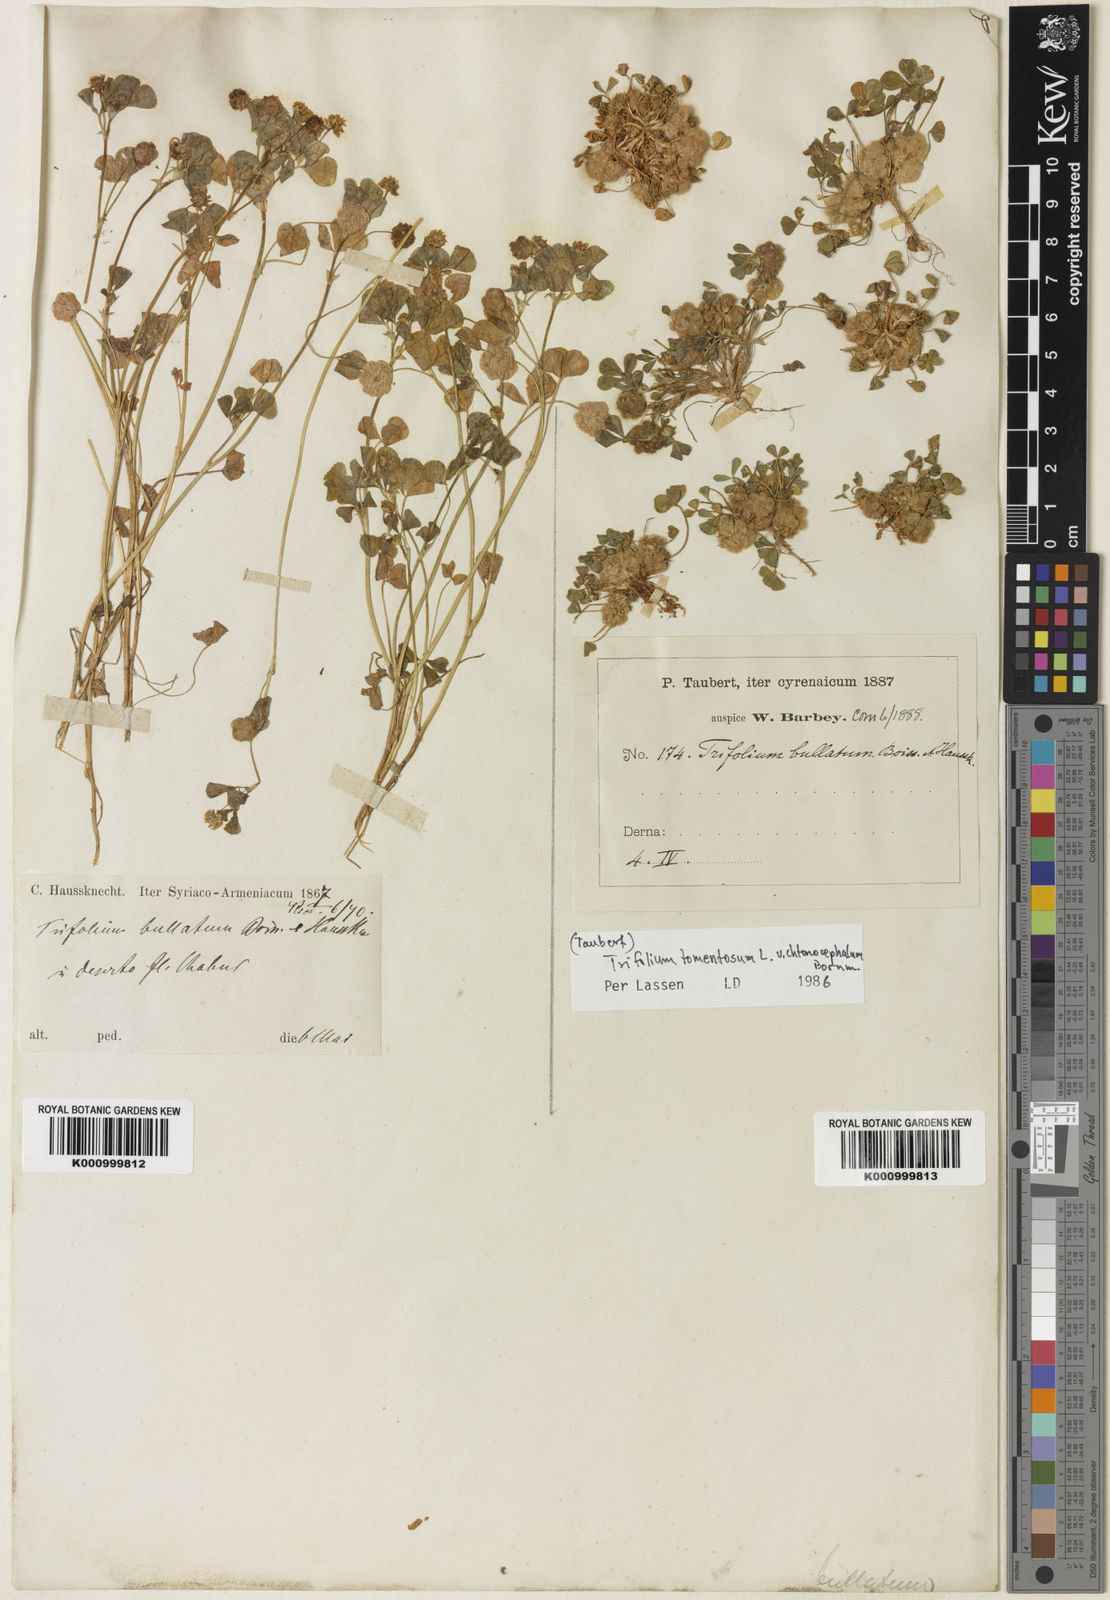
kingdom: Plantae
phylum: Tracheophyta
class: Magnoliopsida
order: Fabales
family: Fabaceae
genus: Trifolium
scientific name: Trifolium tomentosum
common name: Woolly clover
